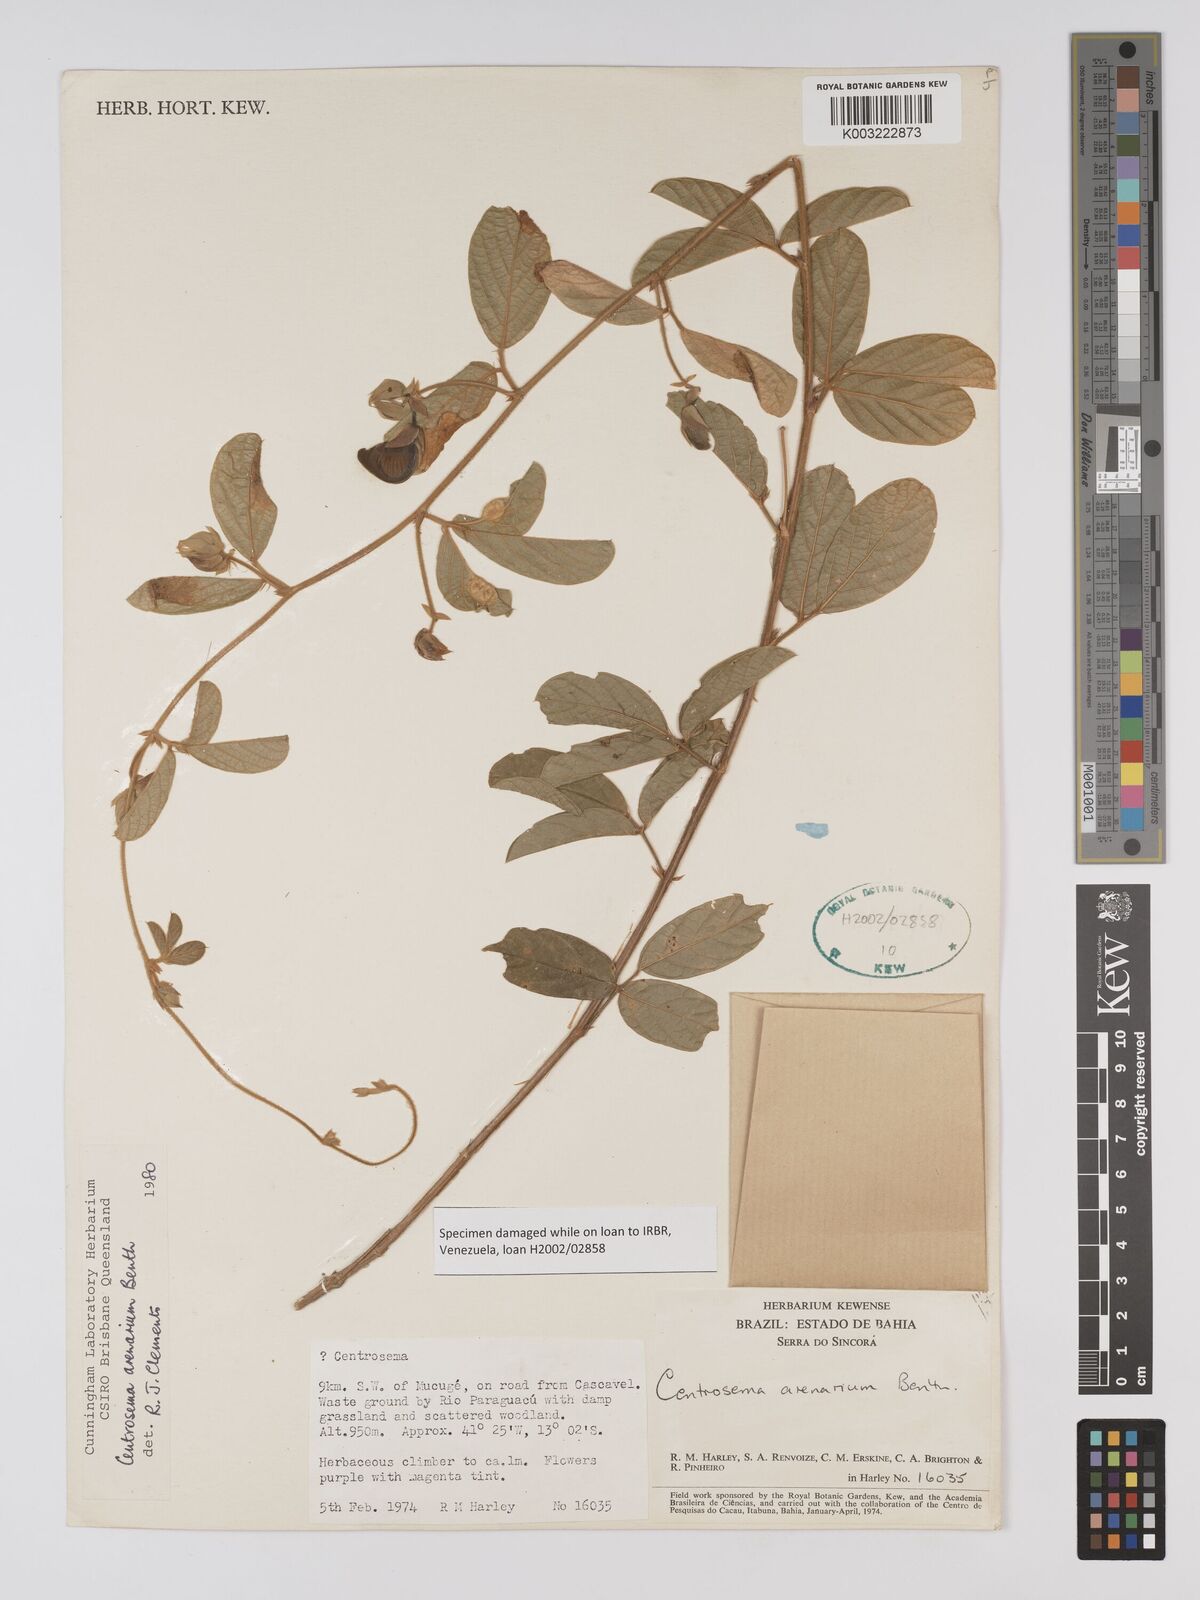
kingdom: Plantae
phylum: Tracheophyta
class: Magnoliopsida
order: Fabales
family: Fabaceae
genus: Centrosema
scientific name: Centrosema arenarium
